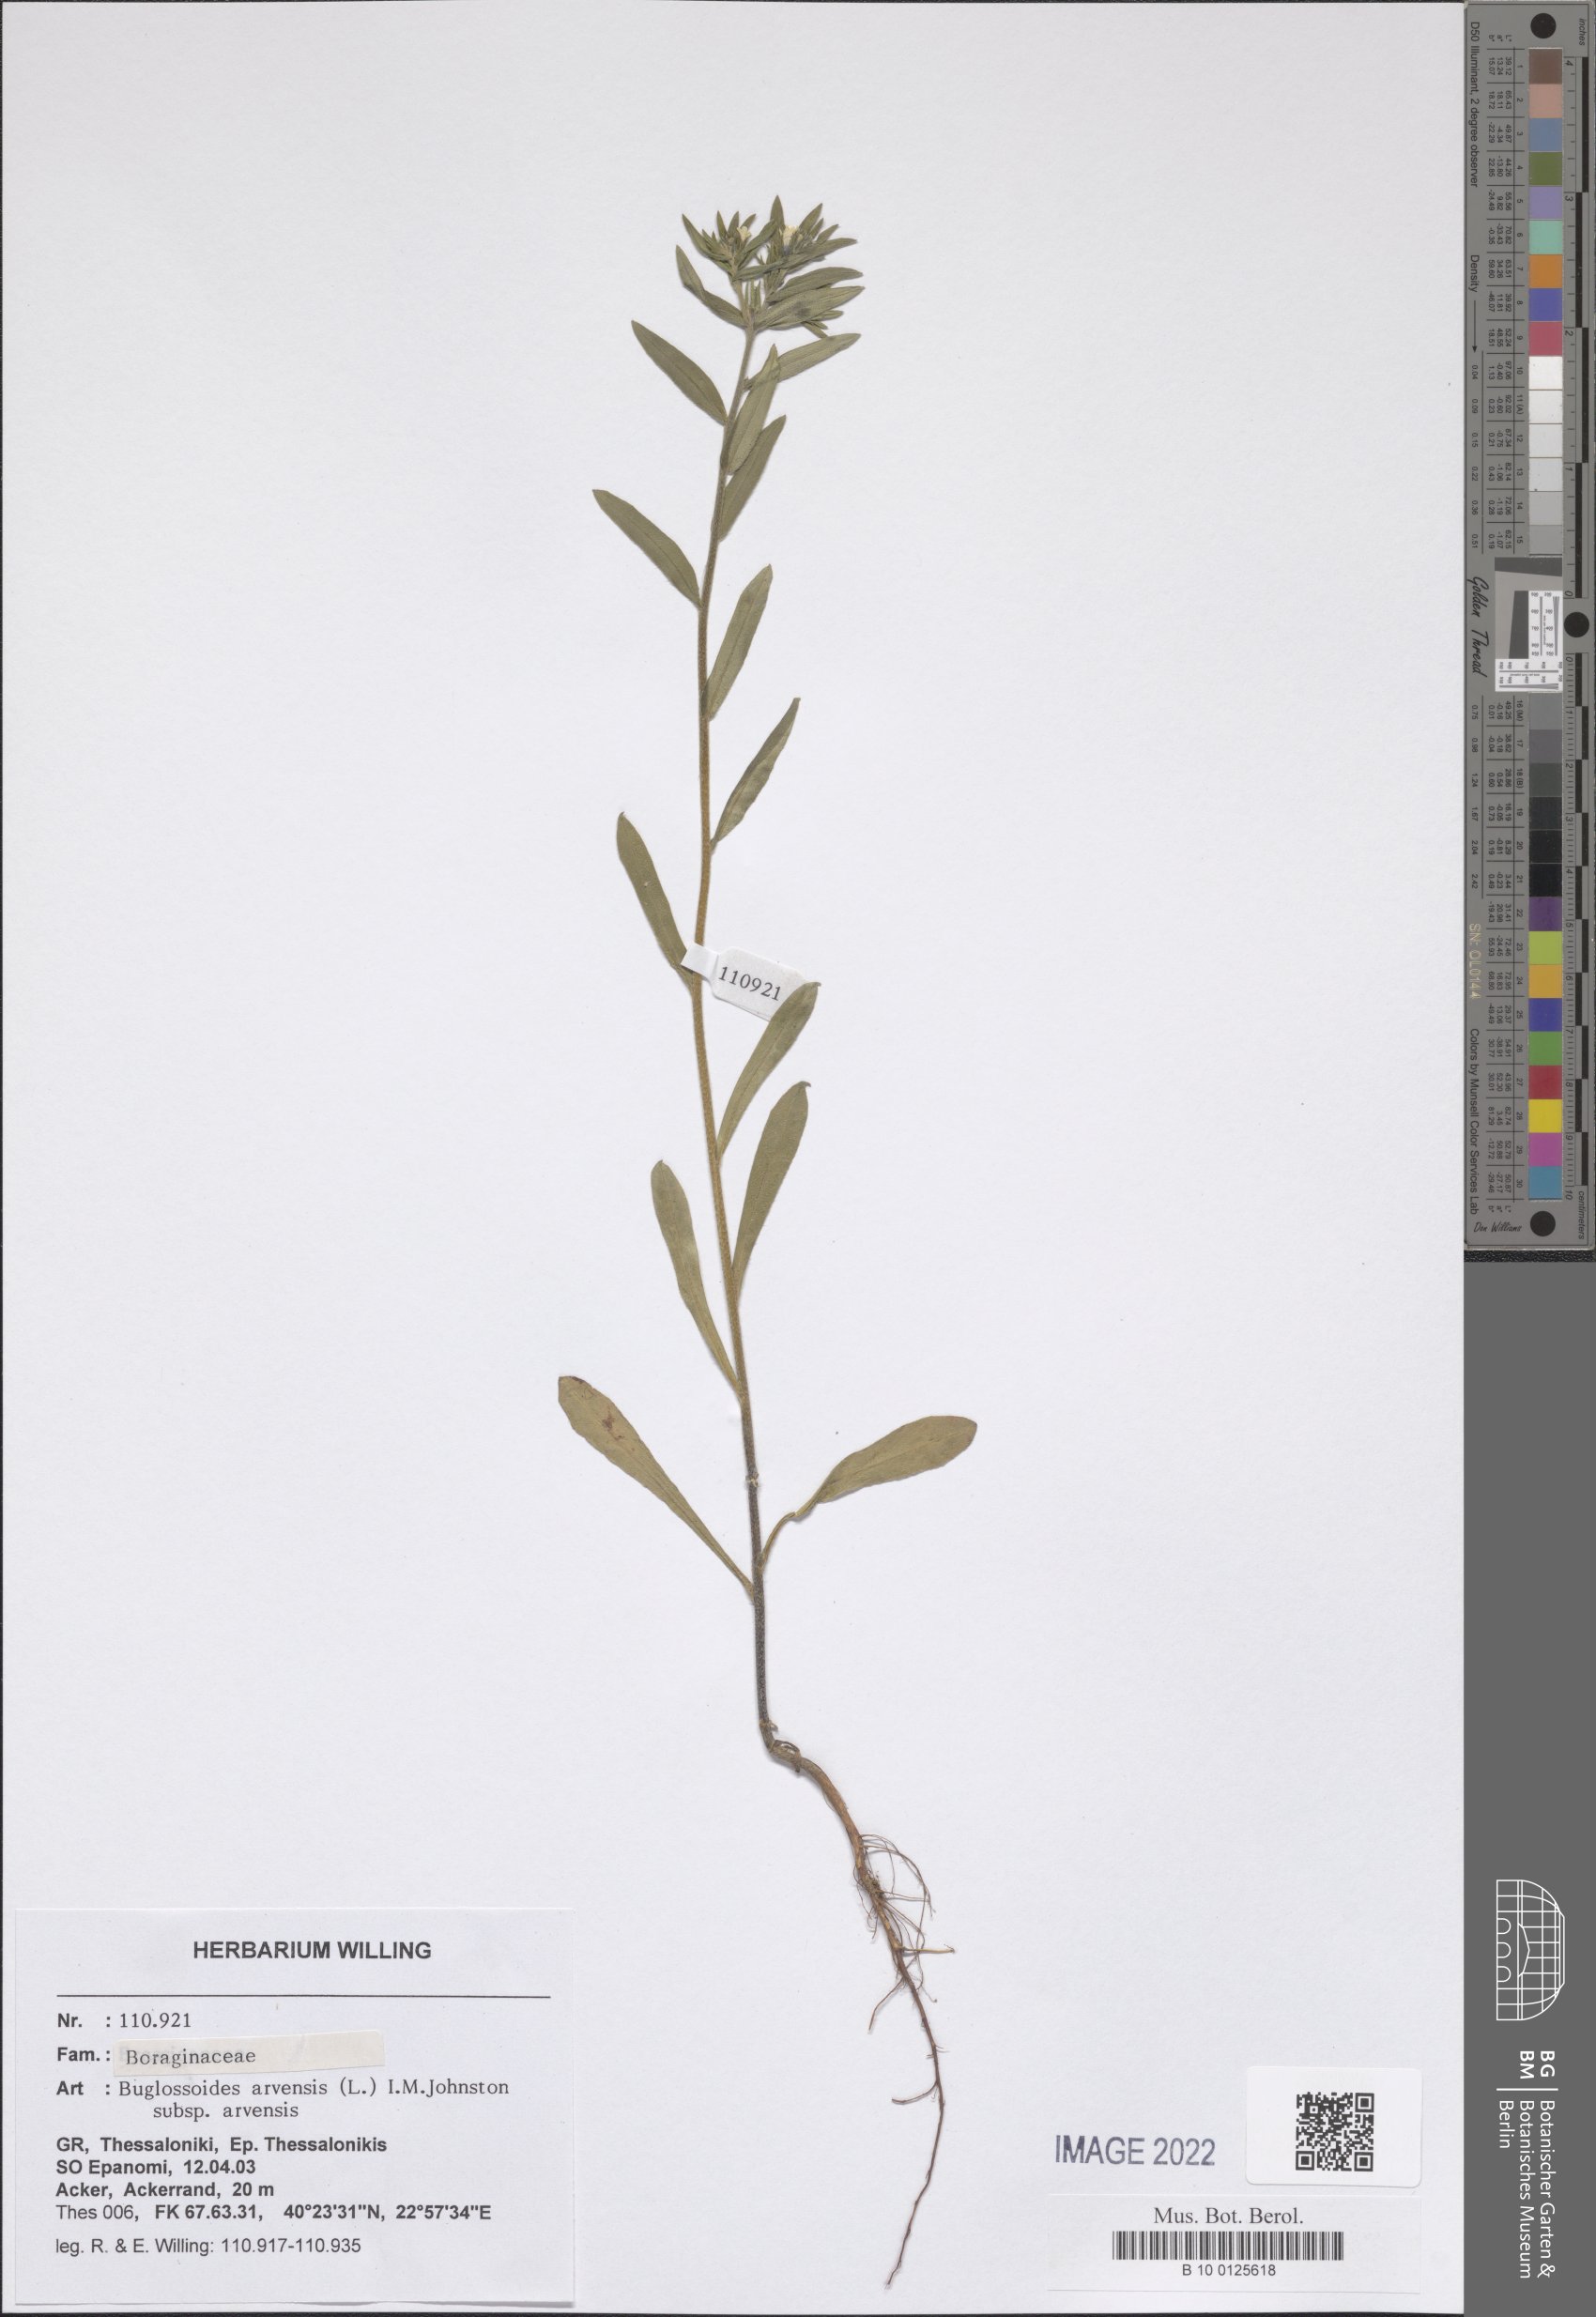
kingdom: Plantae
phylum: Tracheophyta
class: Magnoliopsida
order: Boraginales
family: Boraginaceae
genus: Buglossoides
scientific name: Buglossoides arvensis
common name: Corn gromwell
